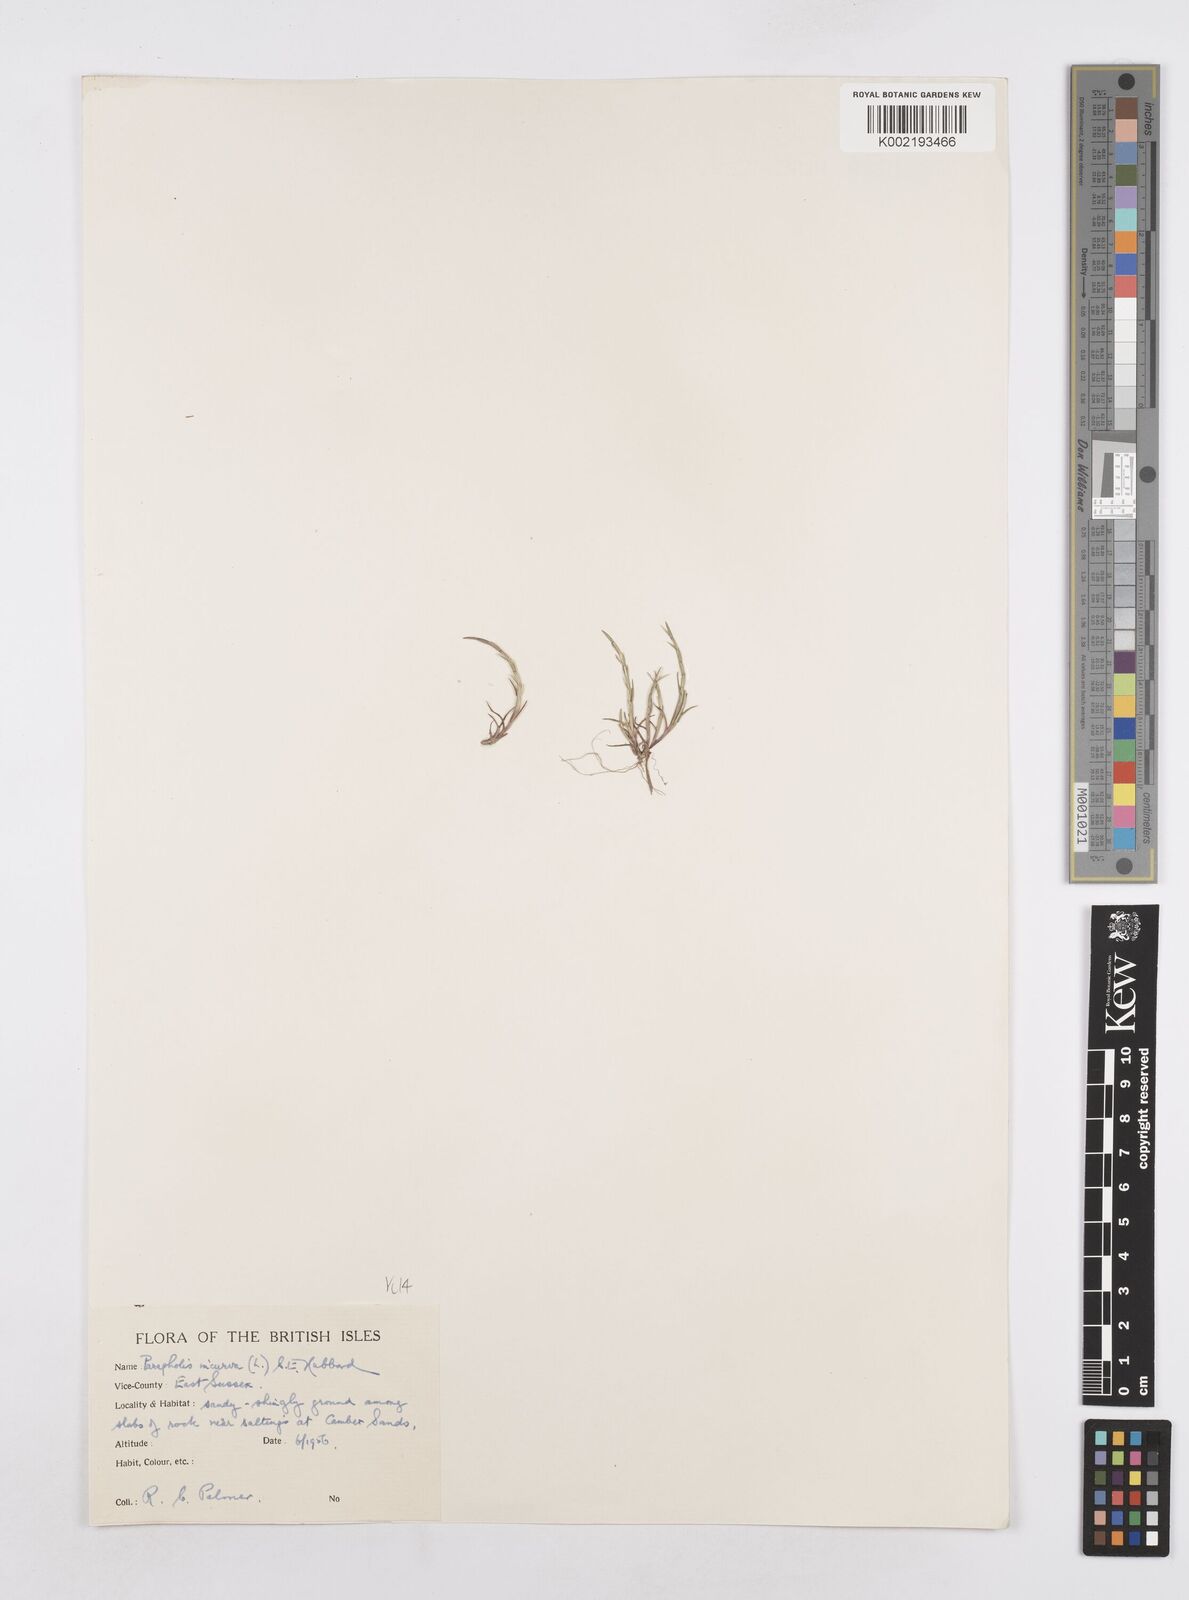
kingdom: Plantae
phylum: Tracheophyta
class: Liliopsida
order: Poales
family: Poaceae
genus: Parapholis
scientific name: Parapholis incurva
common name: Curved sicklegrass
